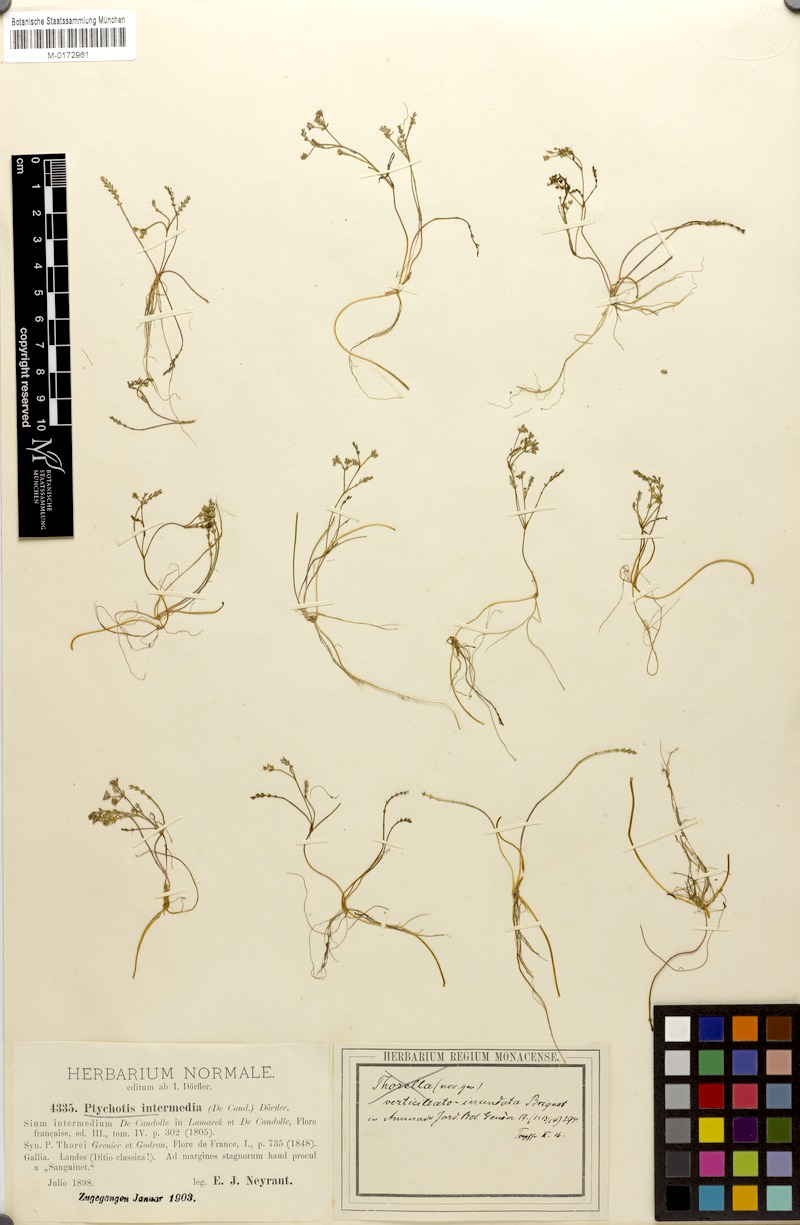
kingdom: Plantae
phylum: Tracheophyta
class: Magnoliopsida
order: Apiales
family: Apiaceae
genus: Caropsis
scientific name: Caropsis verticillatoinundata
